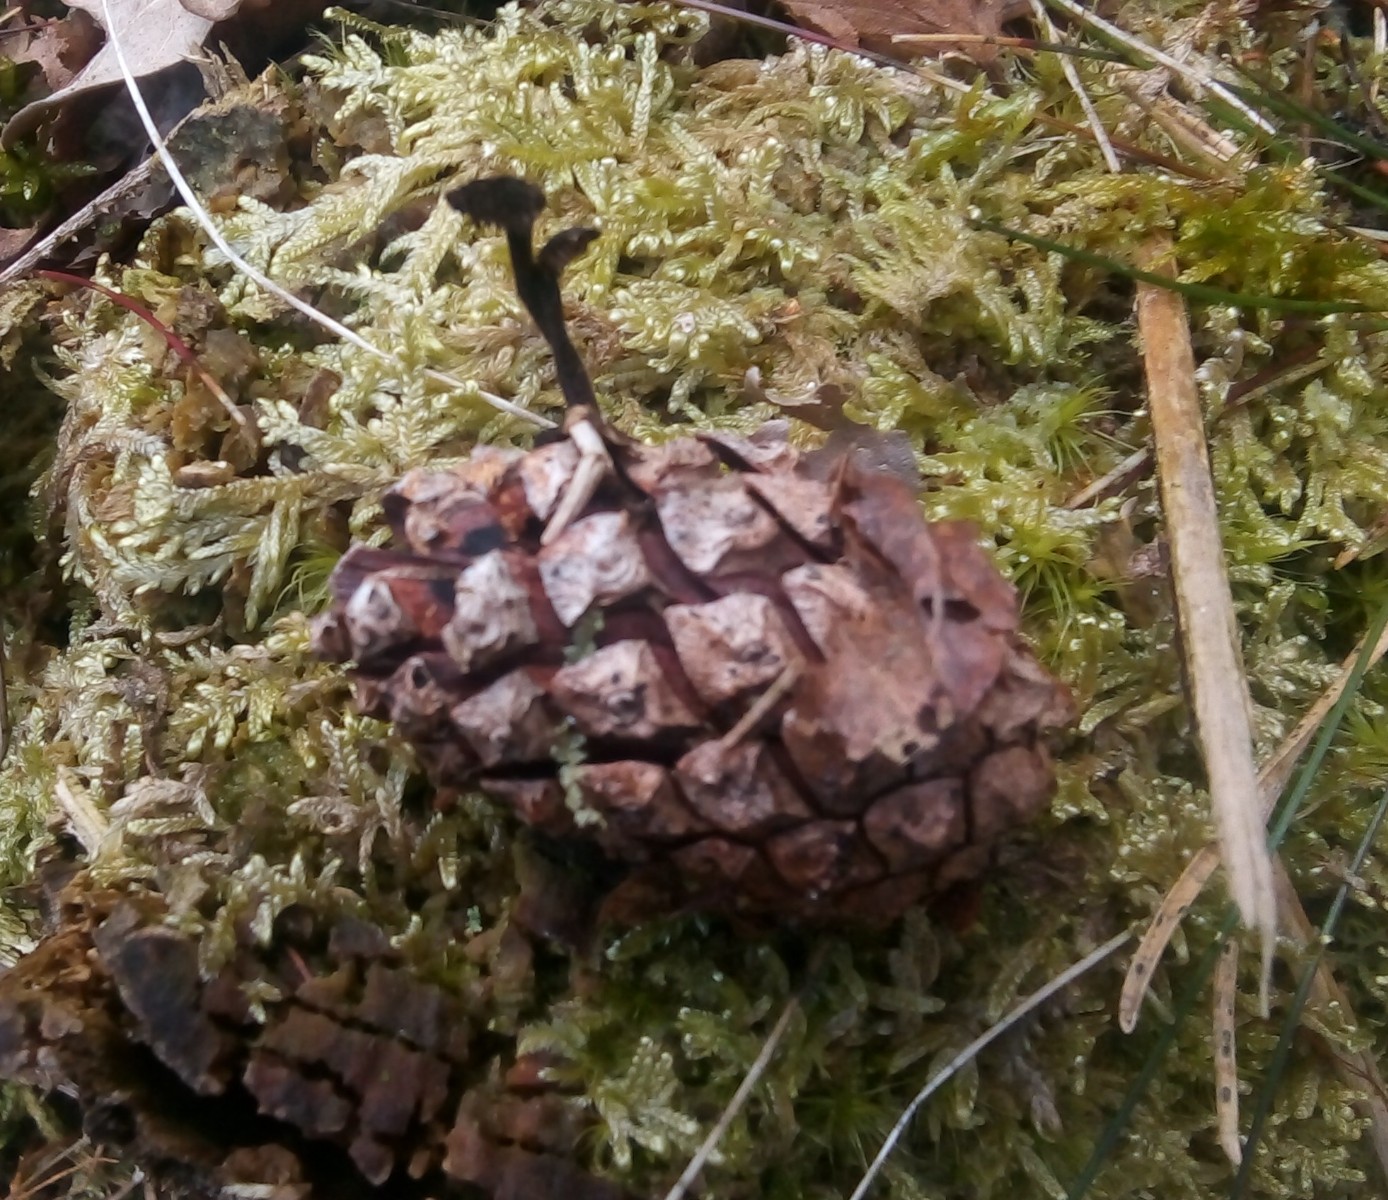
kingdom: Fungi
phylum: Basidiomycota
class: Agaricomycetes
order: Russulales
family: Auriscalpiaceae
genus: Auriscalpium
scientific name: Auriscalpium vulgare
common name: koglepigsvamp
